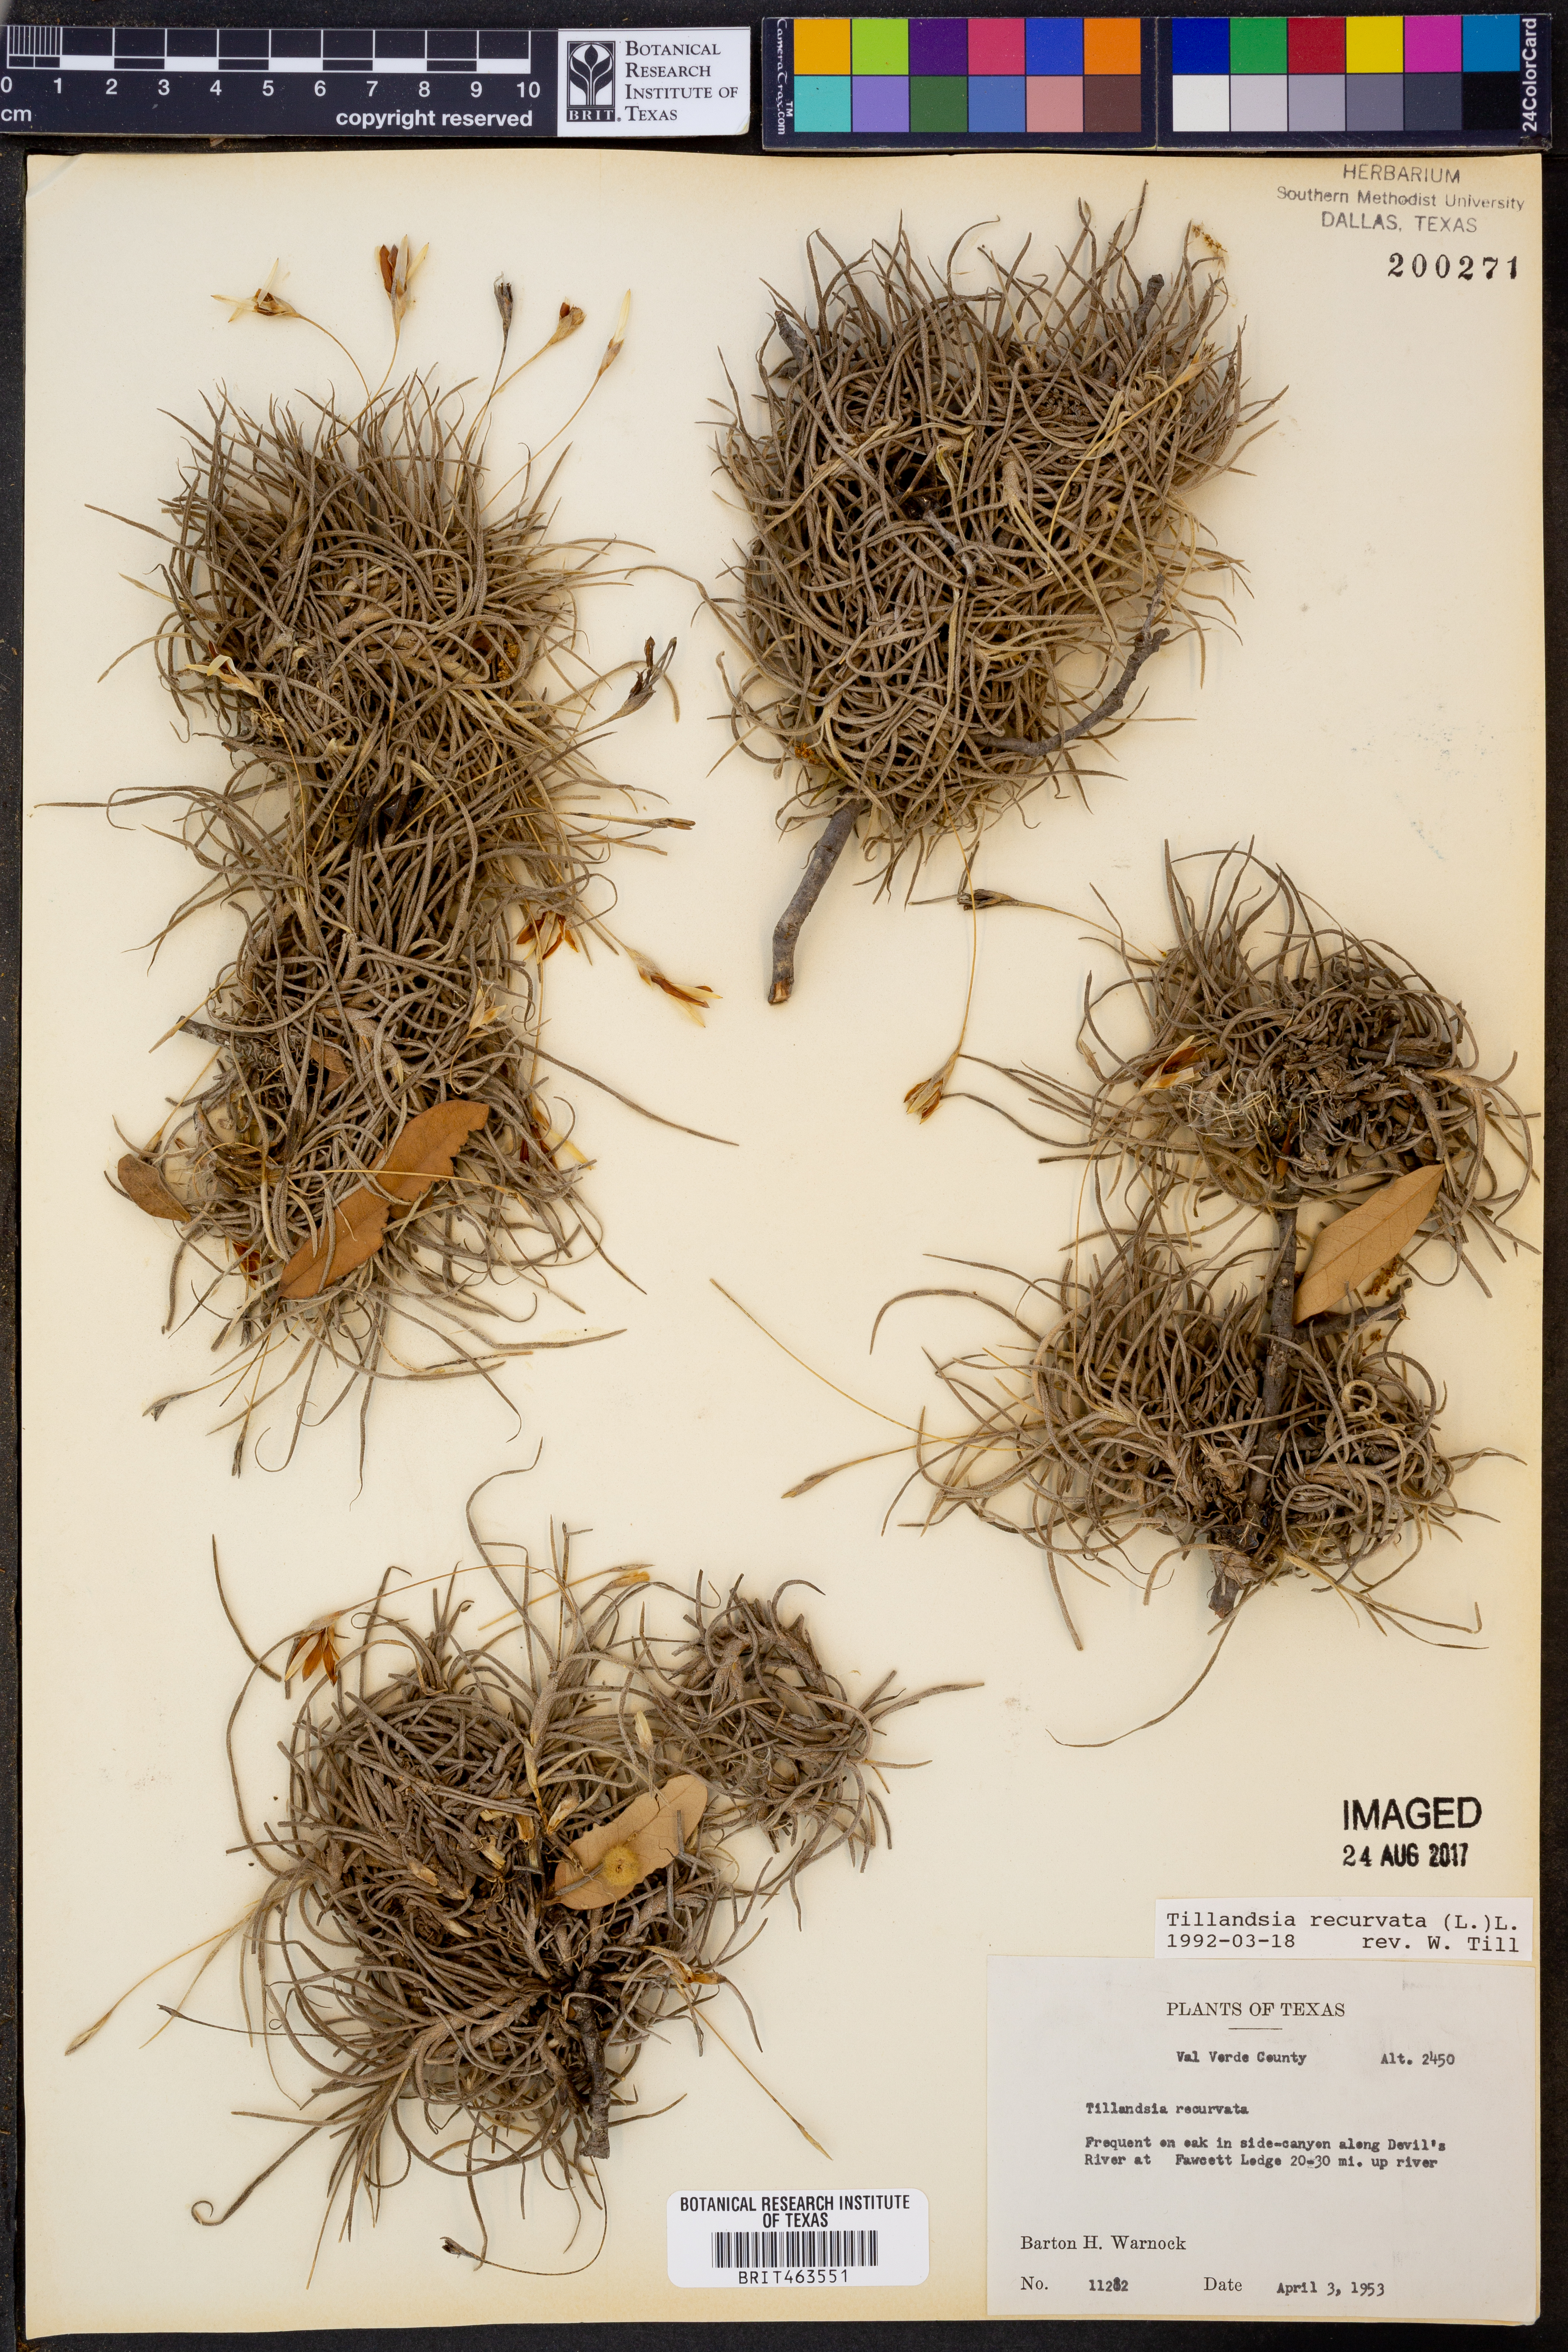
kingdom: Plantae
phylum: Tracheophyta
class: Liliopsida
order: Poales
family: Bromeliaceae
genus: Tillandsia
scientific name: Tillandsia recurvata
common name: Small ballmoss
